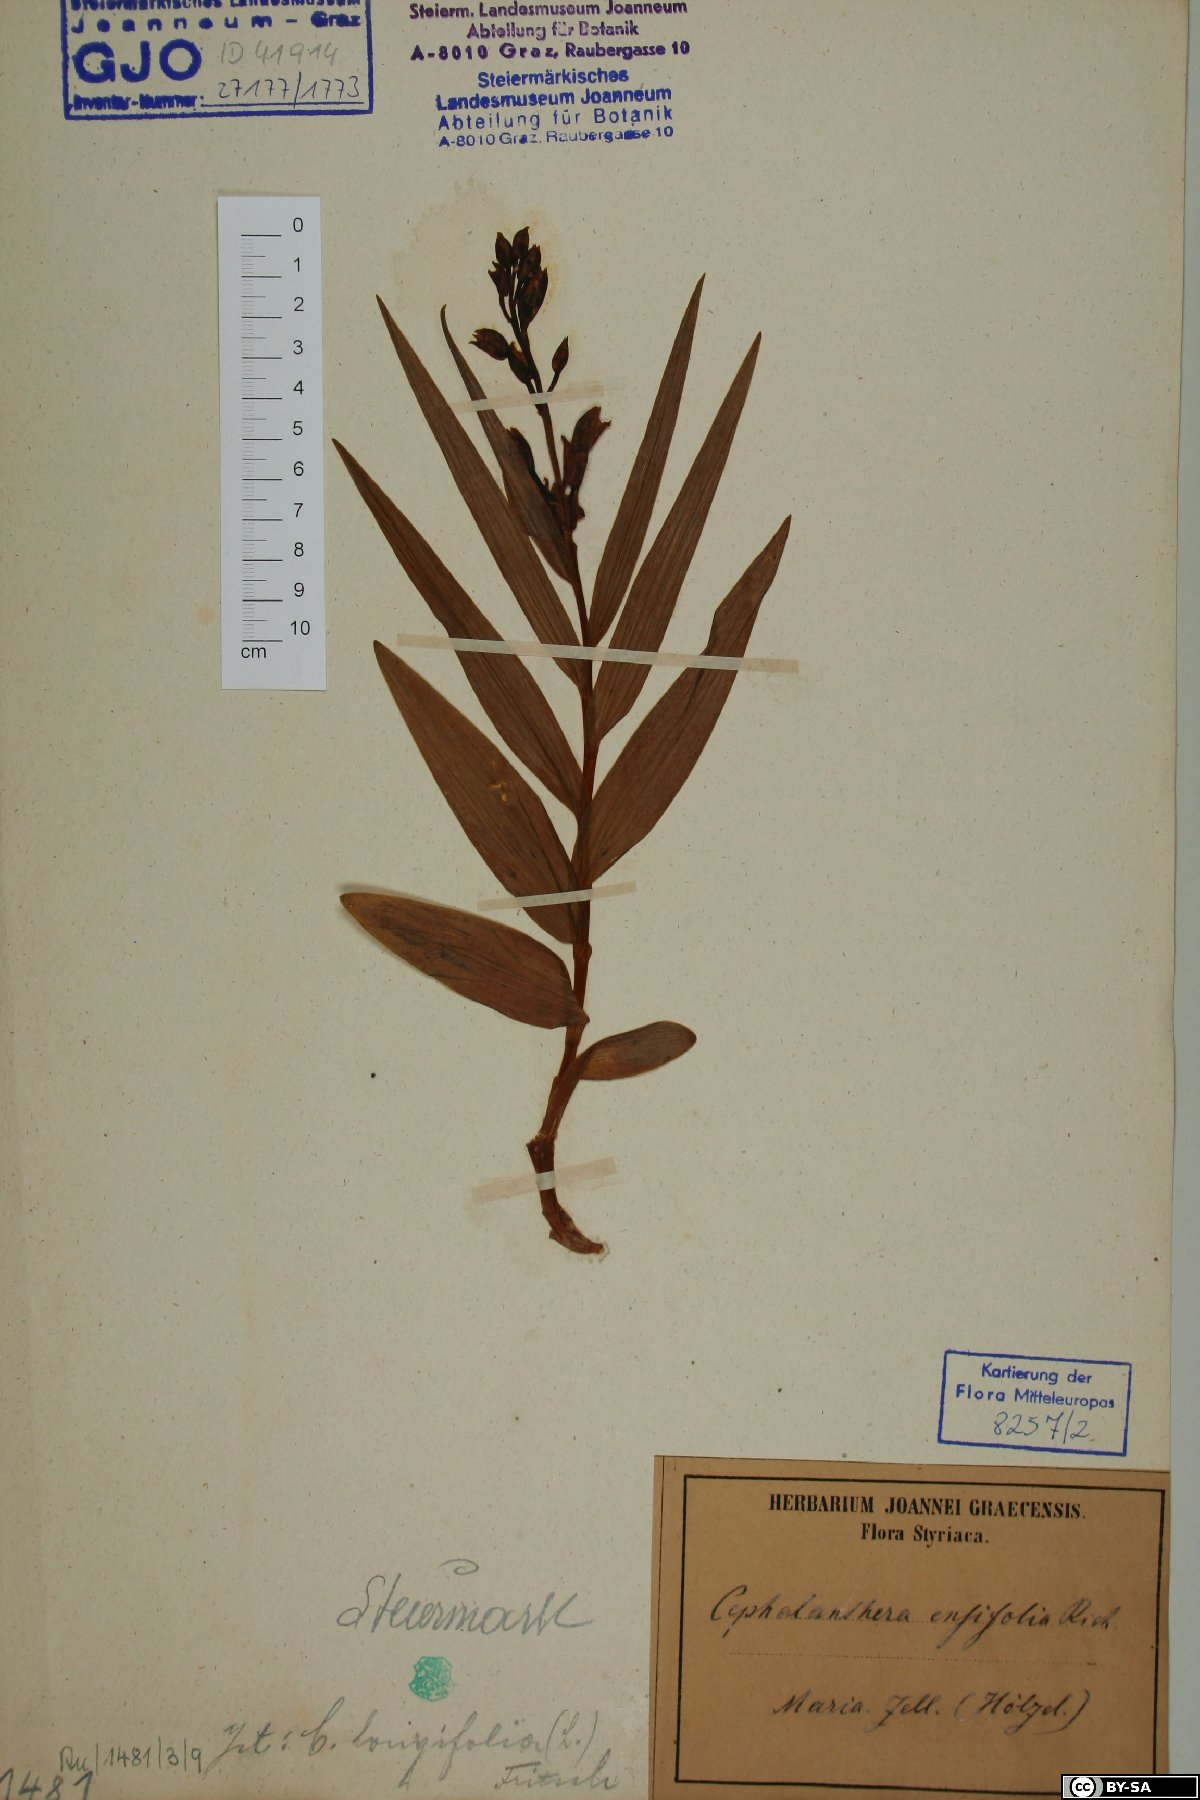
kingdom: Plantae
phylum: Tracheophyta
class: Liliopsida
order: Asparagales
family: Orchidaceae
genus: Cephalanthera
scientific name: Cephalanthera longifolia
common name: Narrow-leaved helleborine
